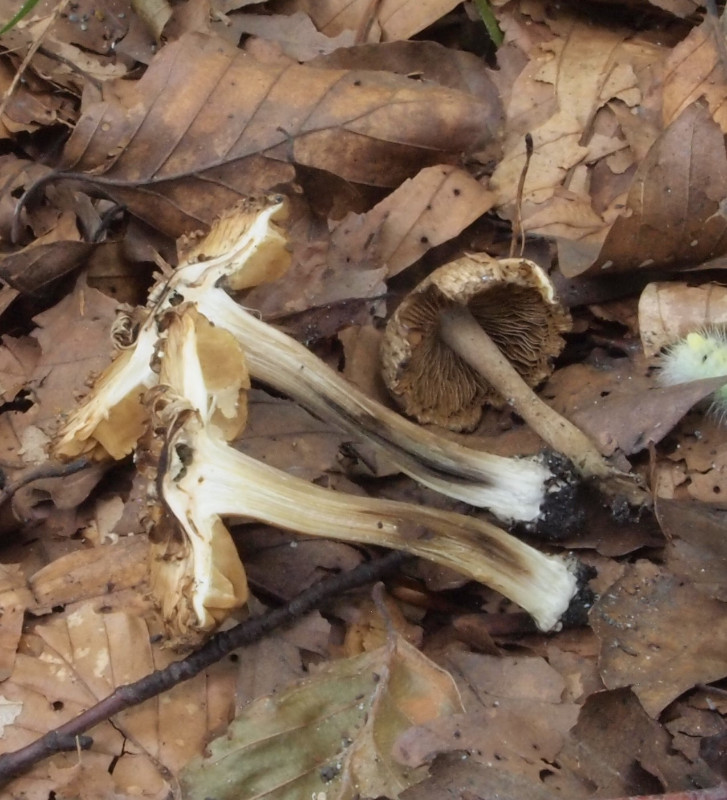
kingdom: Fungi
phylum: Basidiomycota
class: Agaricomycetes
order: Agaricales
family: Inocybaceae
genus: Inocybe
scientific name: Inocybe erinaceomorpha
